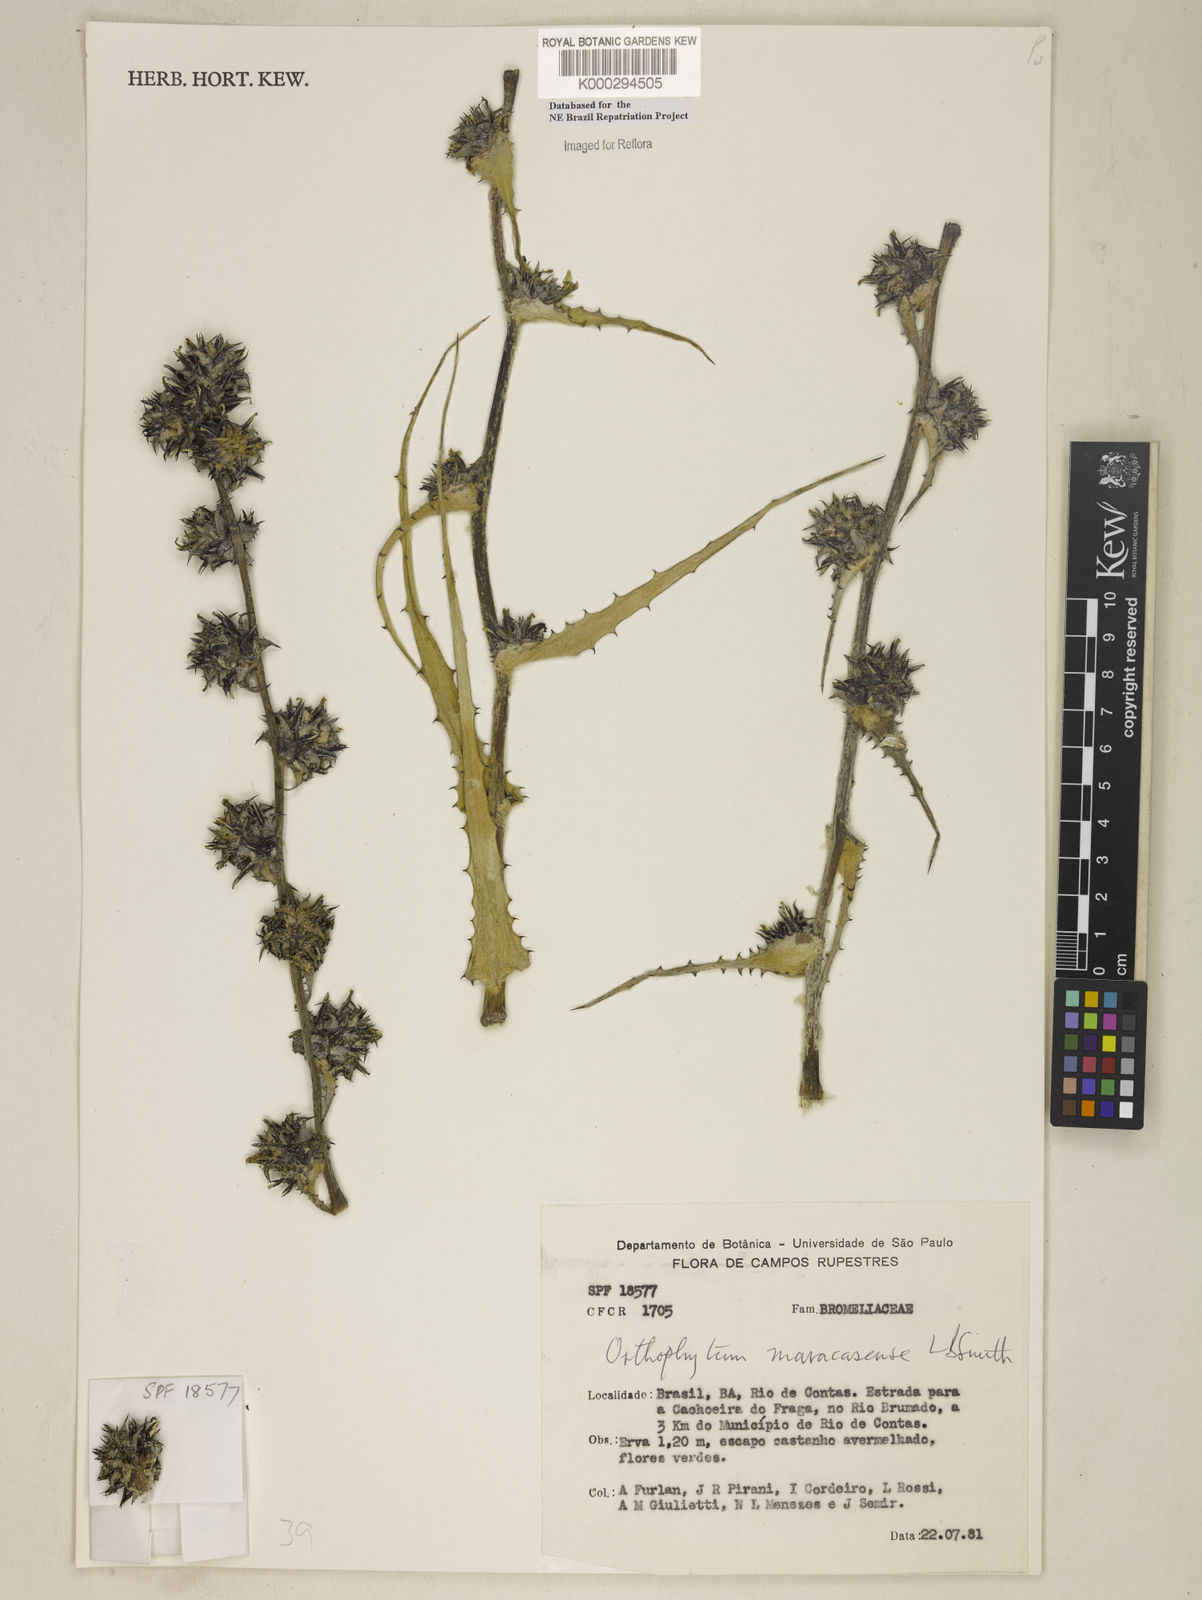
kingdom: Plantae
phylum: Tracheophyta
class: Liliopsida
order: Poales
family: Bromeliaceae
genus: Orthophytum
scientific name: Orthophytum disjunctum
